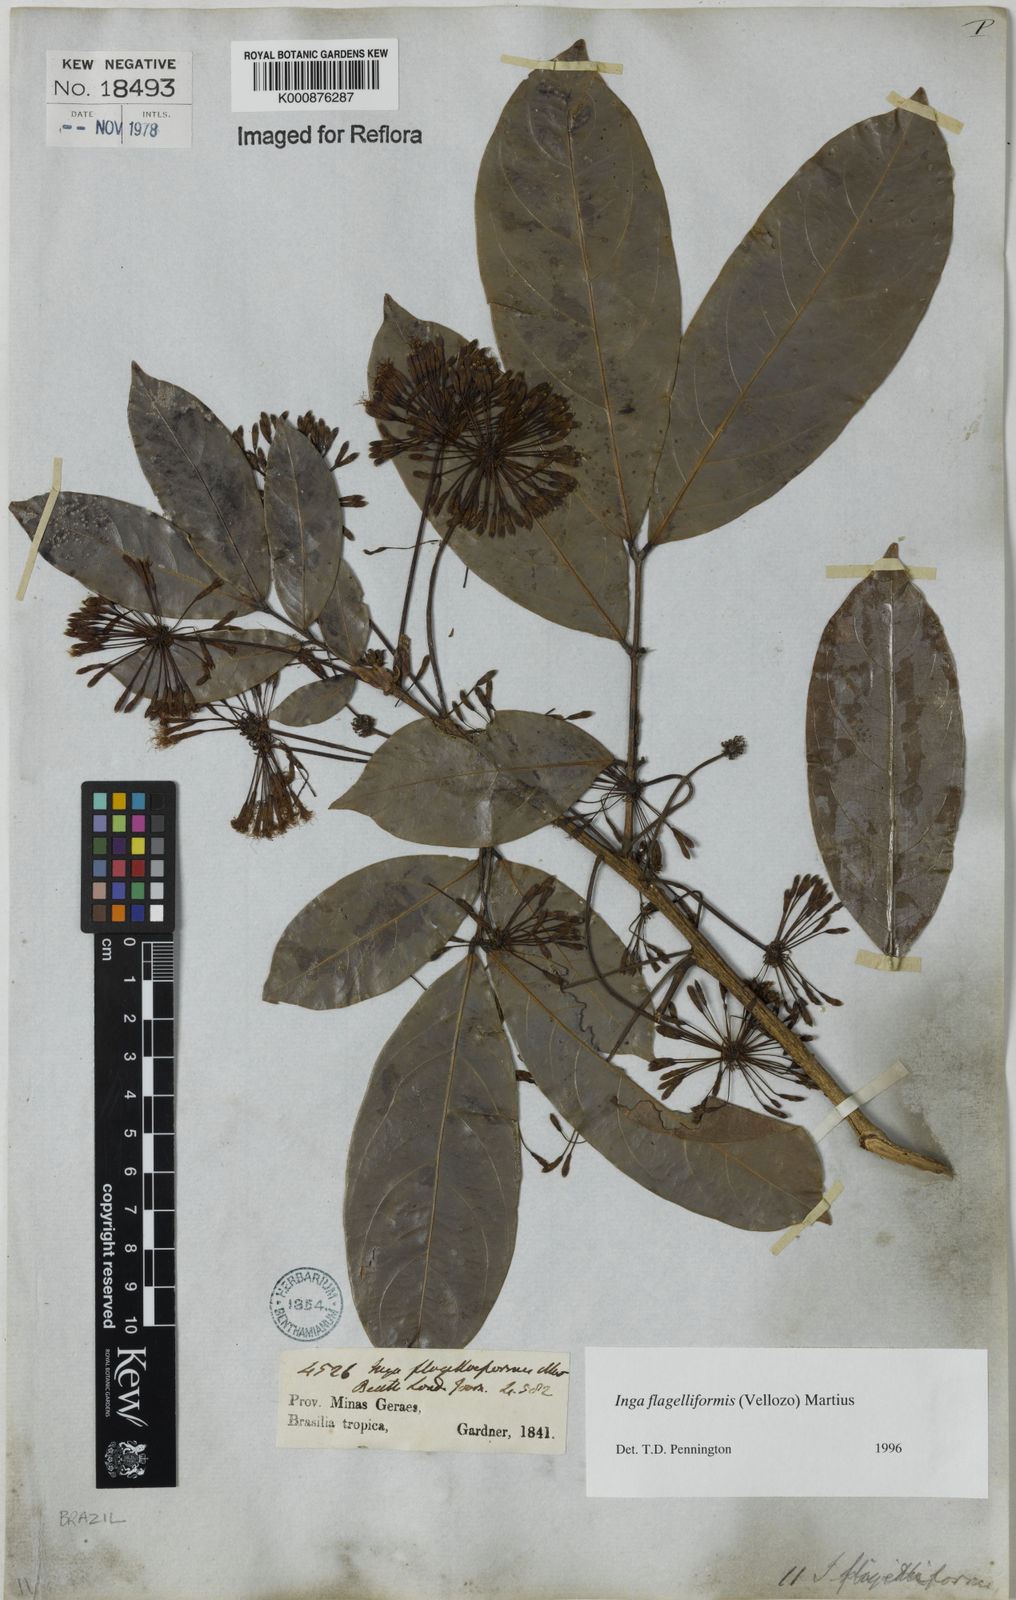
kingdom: Plantae
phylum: Tracheophyta
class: Magnoliopsida
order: Fabales
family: Fabaceae
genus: Inga
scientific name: Inga flagelliformis
